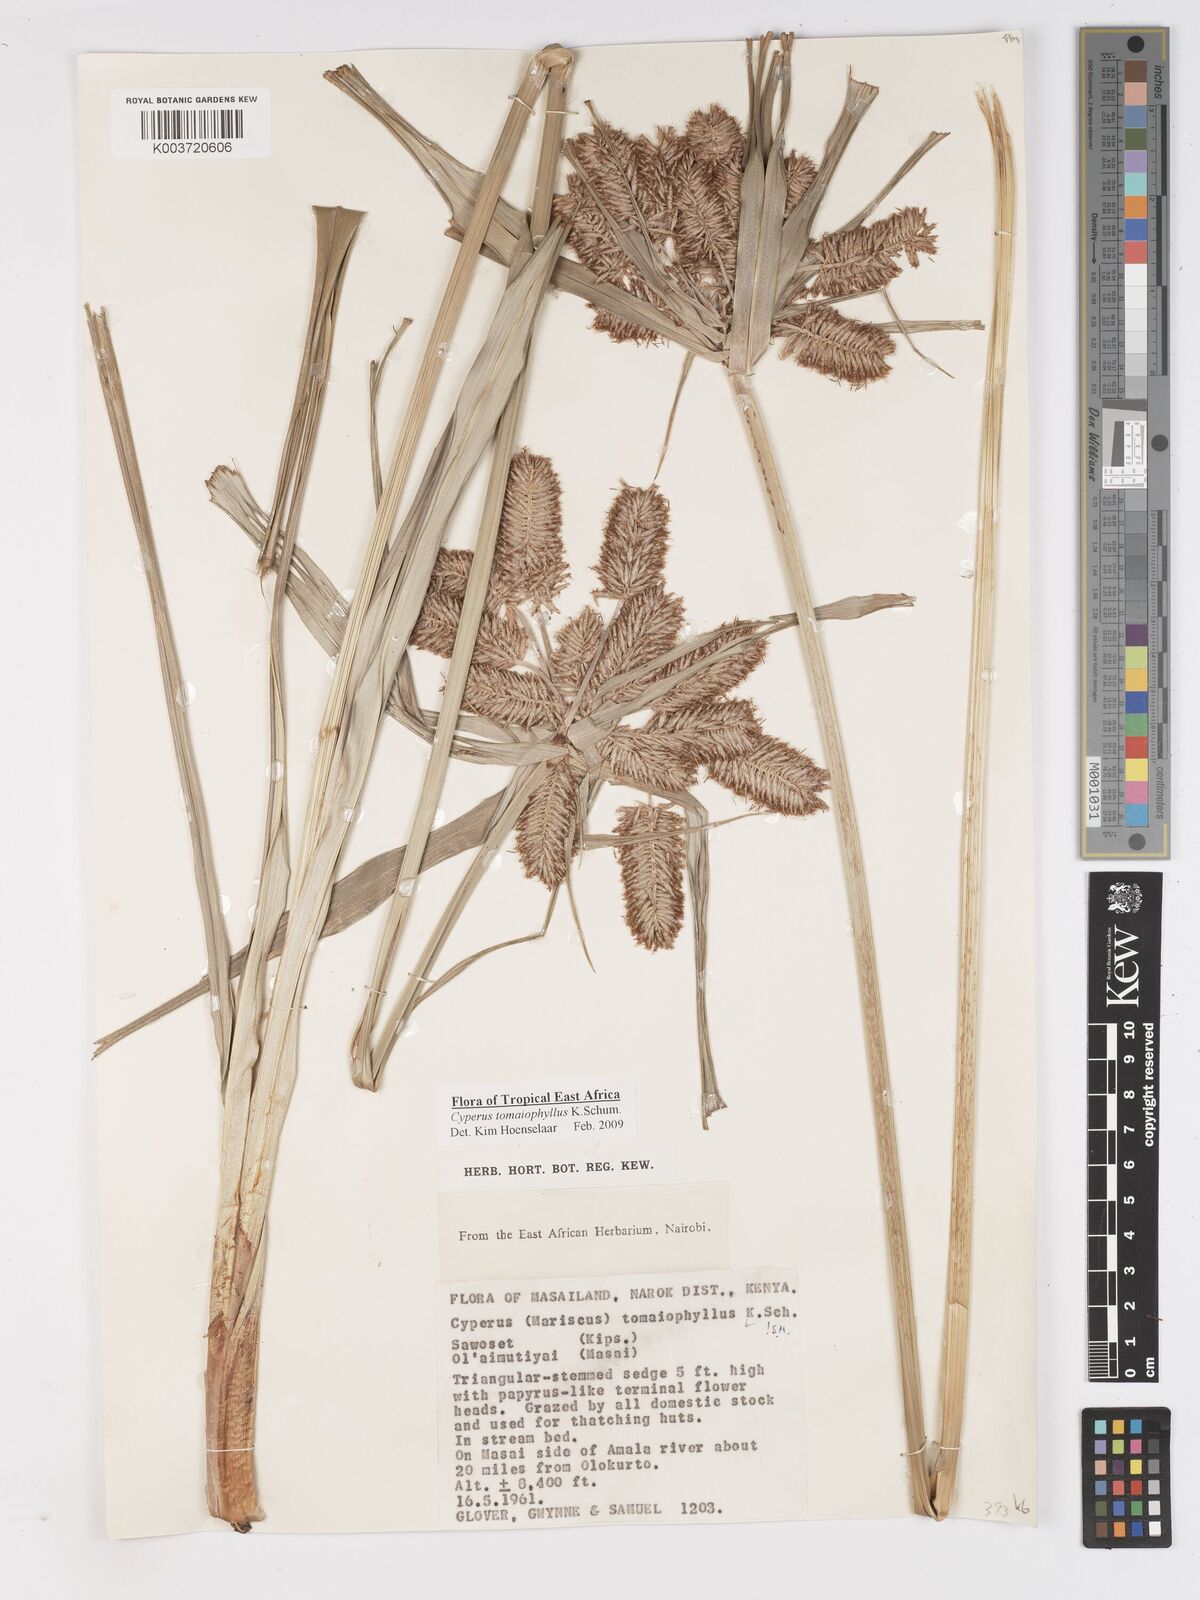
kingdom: Plantae
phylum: Tracheophyta
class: Liliopsida
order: Poales
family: Cyperaceae
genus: Cyperus
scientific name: Cyperus tomaiophyllus
